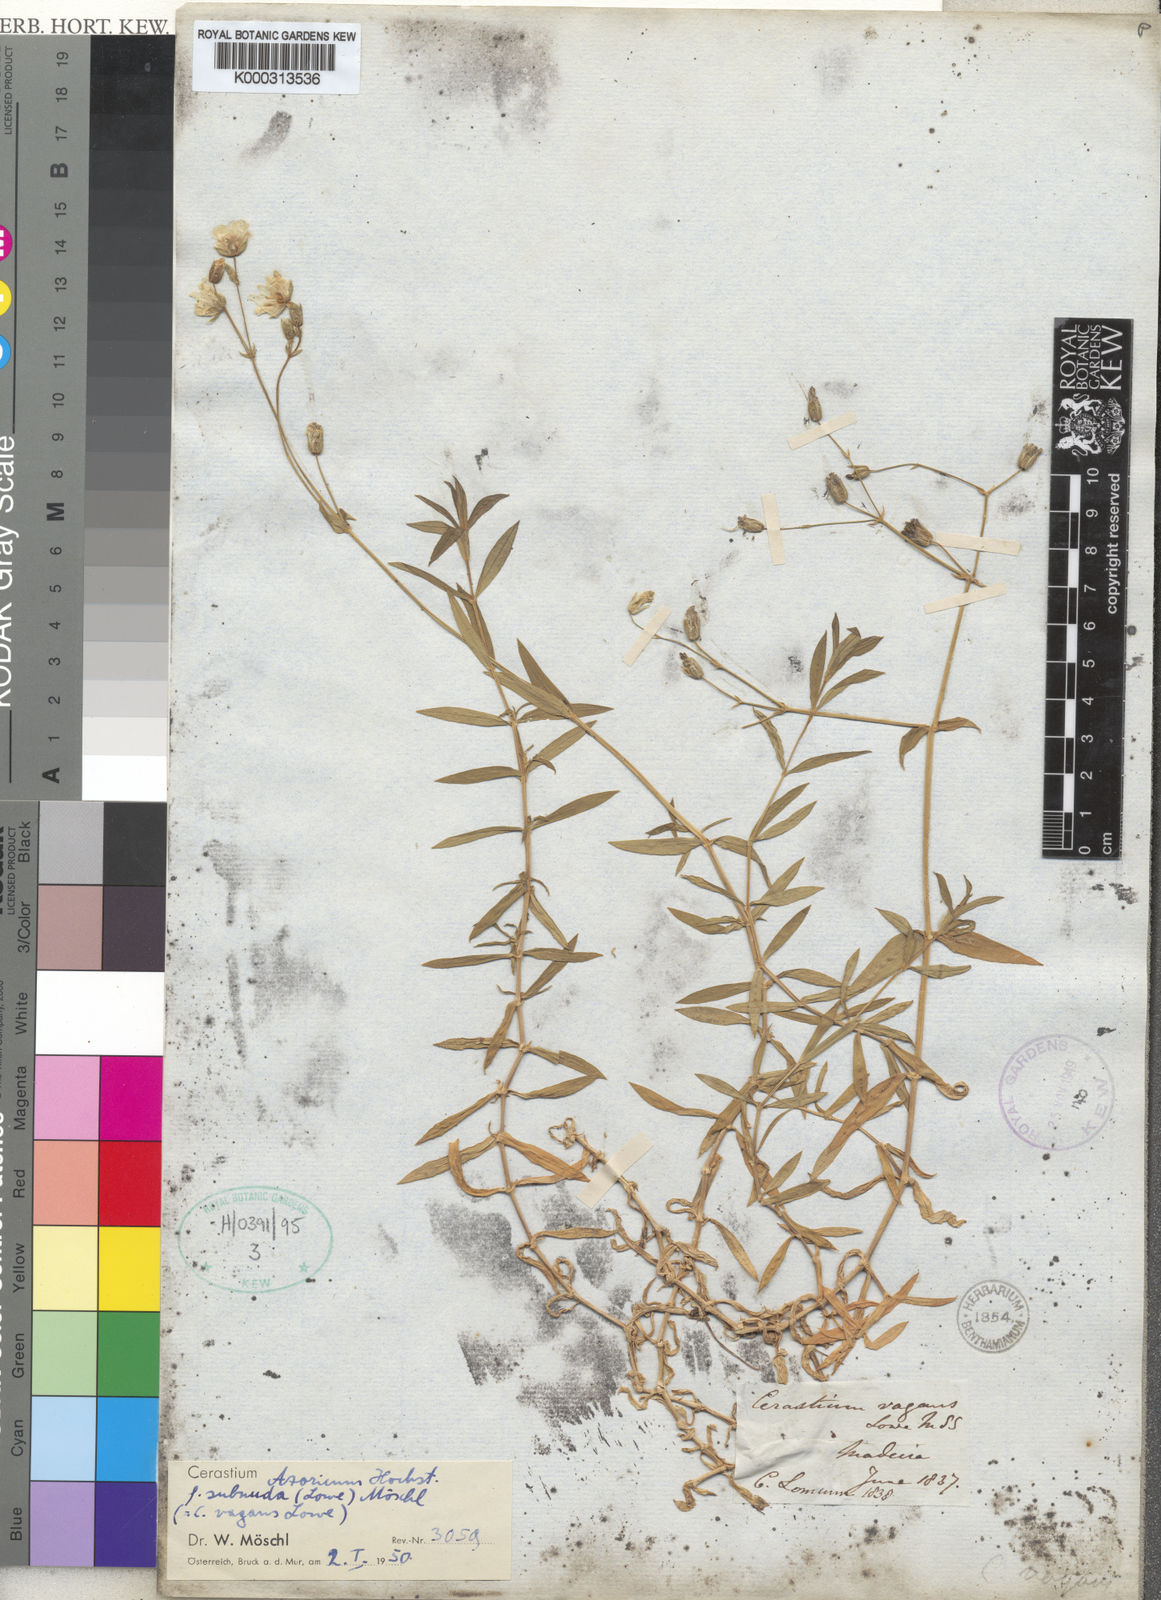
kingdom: Plantae
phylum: Tracheophyta
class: Magnoliopsida
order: Caryophyllales
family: Caryophyllaceae
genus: Cerastium
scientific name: Cerastium azoricum
